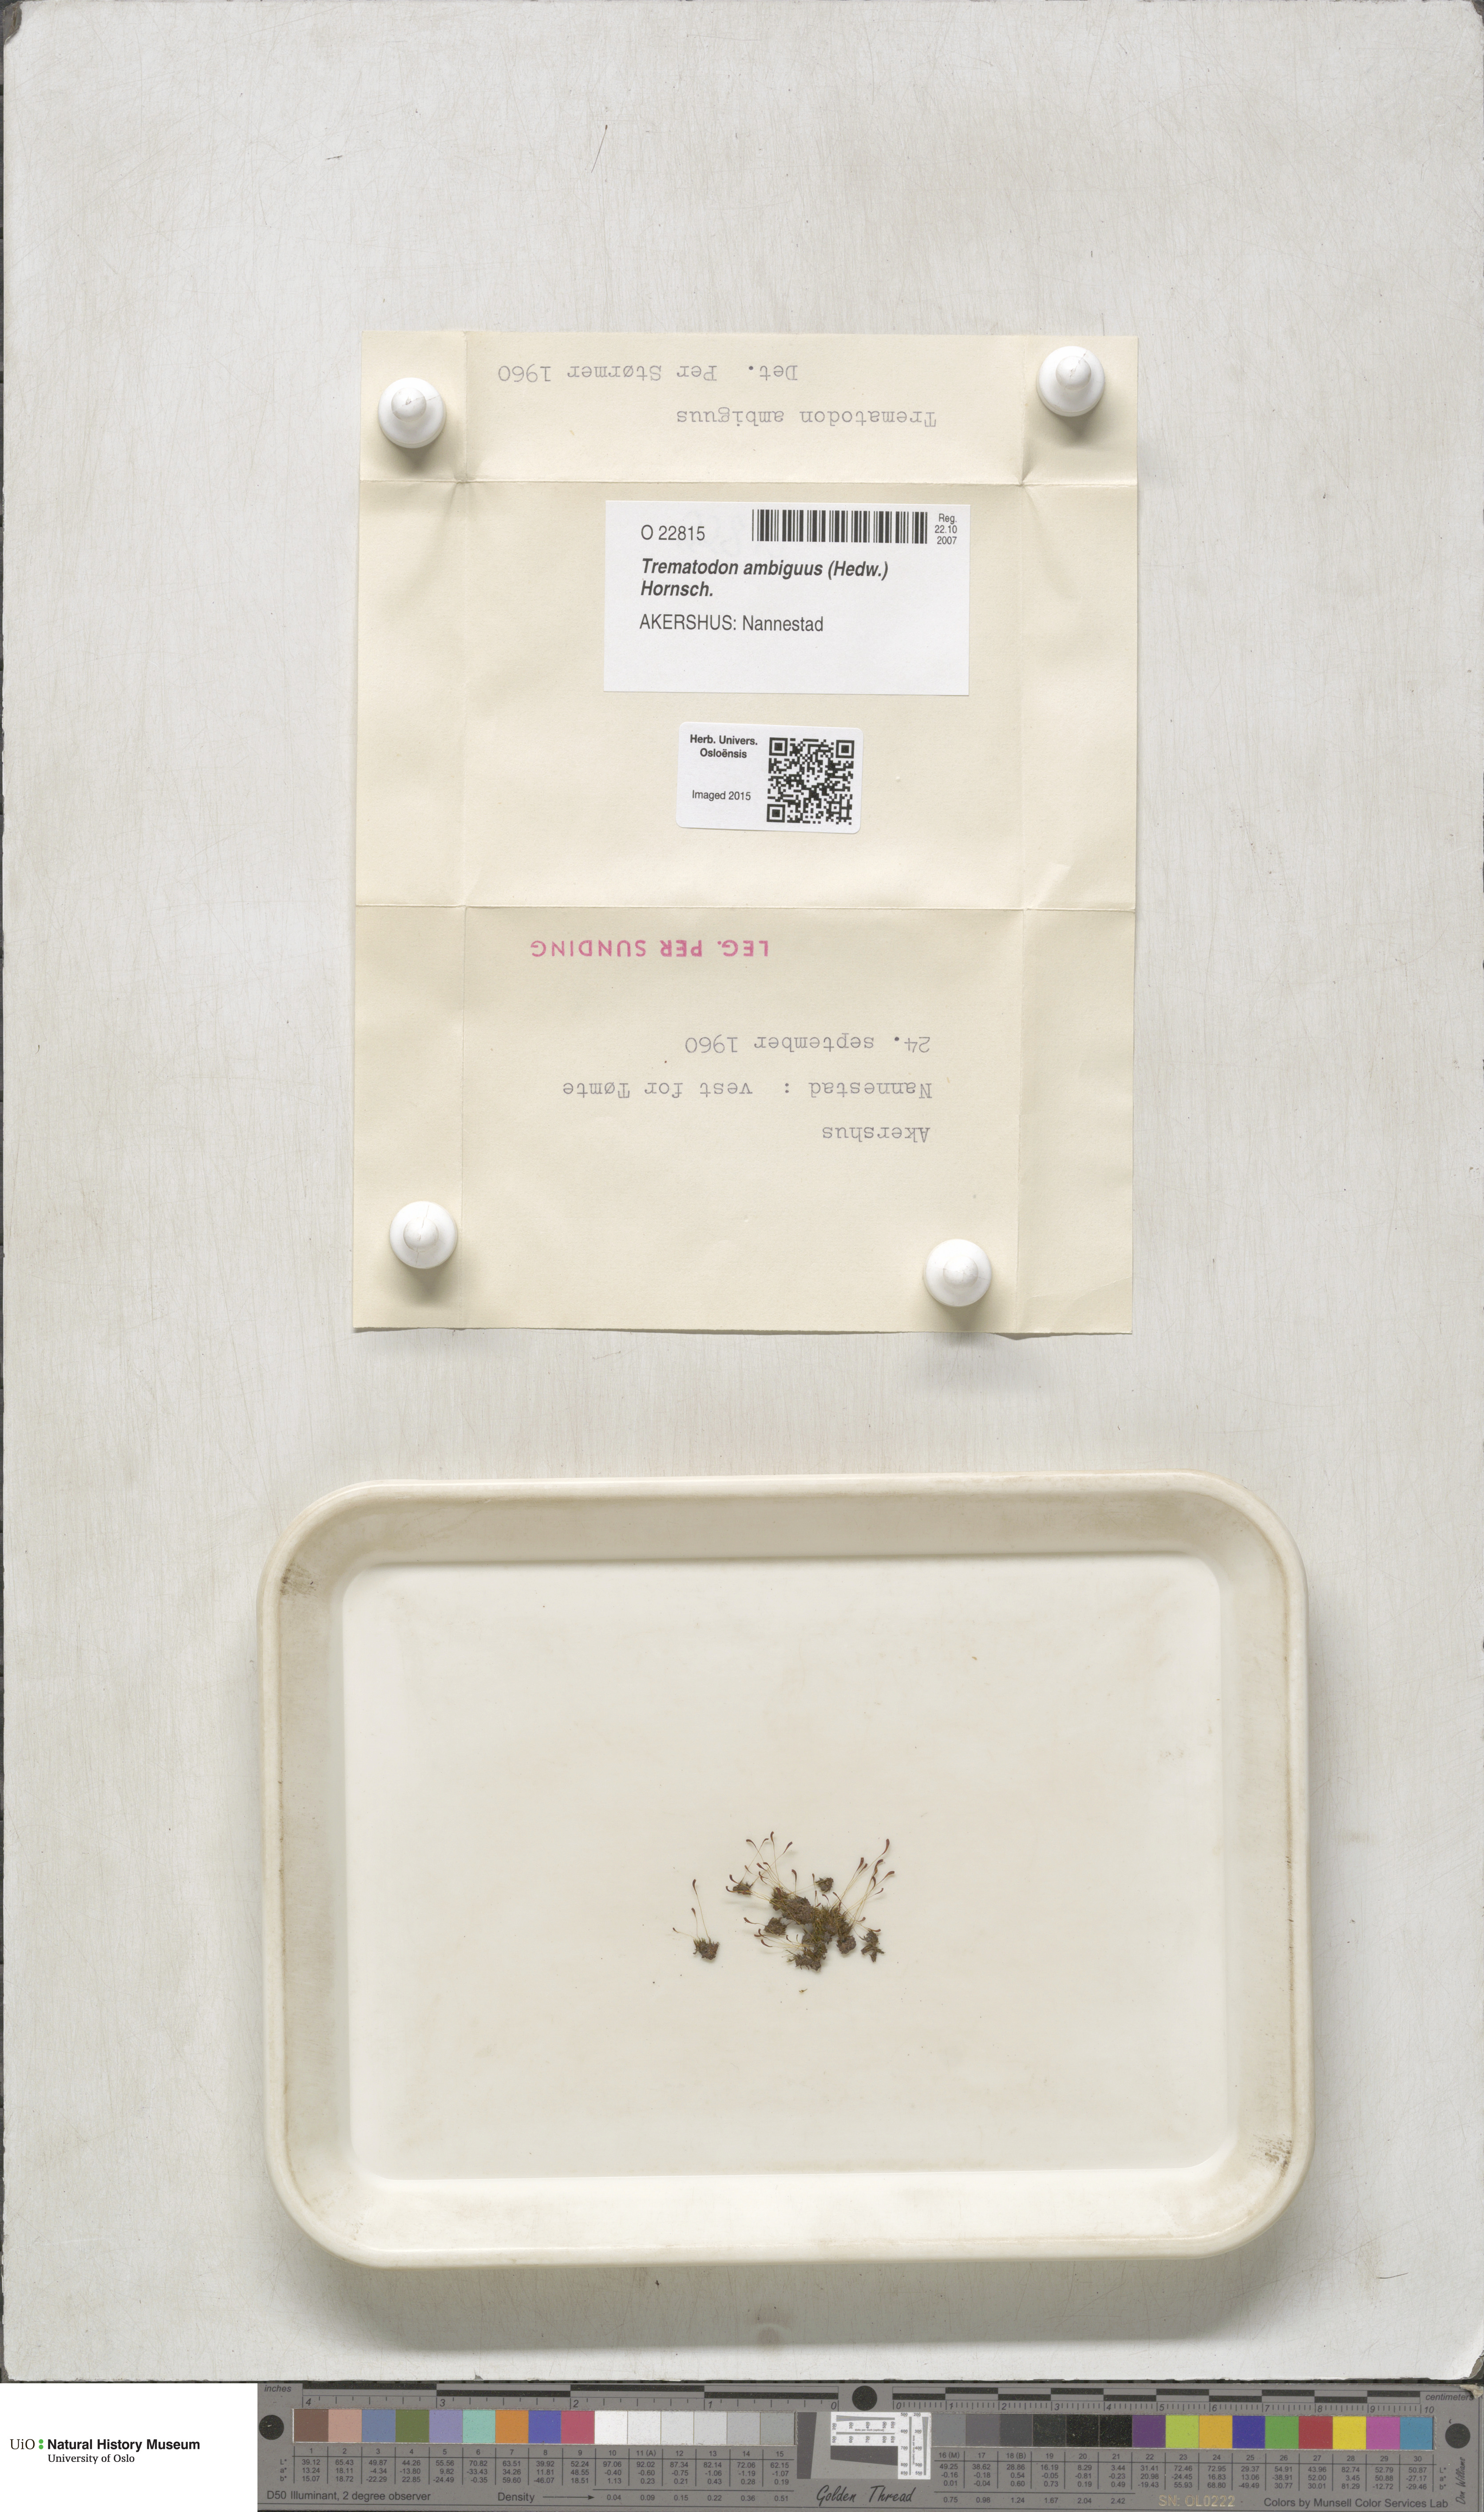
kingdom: Plantae
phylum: Bryophyta
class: Bryopsida
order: Dicranales
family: Bruchiaceae
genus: Trematodon
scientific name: Trematodon ambiguus
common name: Ambiguous long-necked moss
